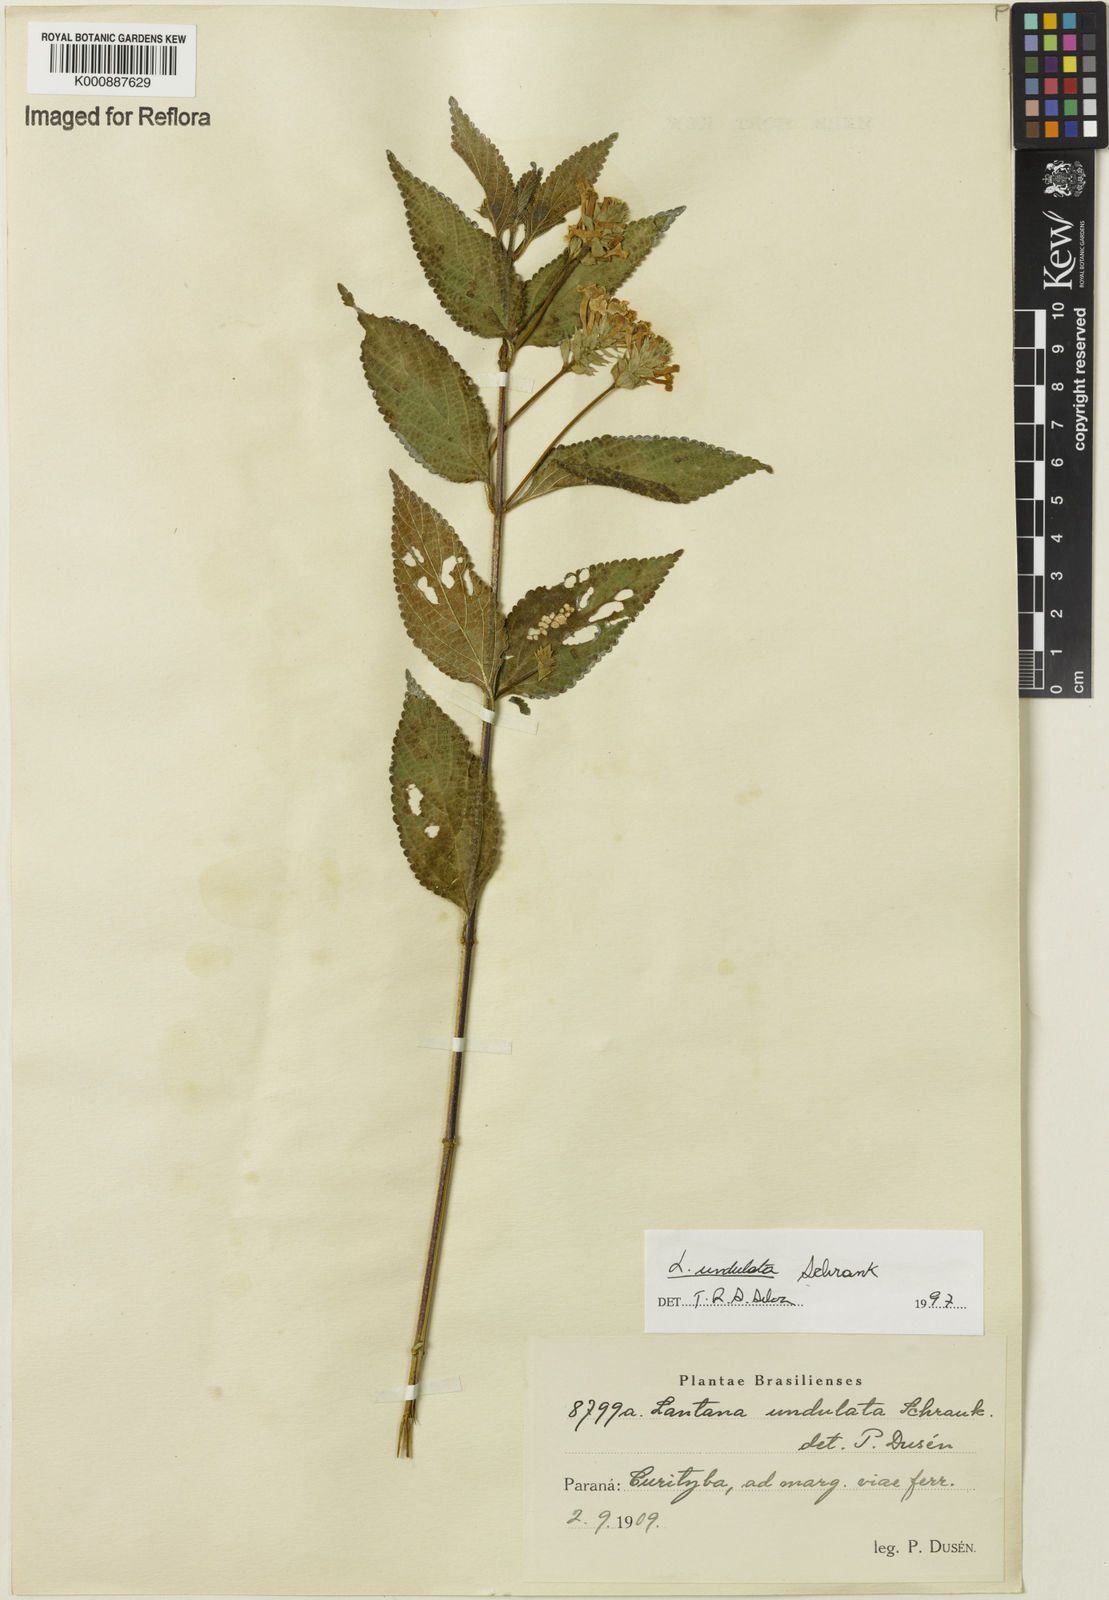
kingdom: Plantae
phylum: Tracheophyta
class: Magnoliopsida
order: Lamiales
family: Verbenaceae
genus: Lantana
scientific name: Lantana undulata
